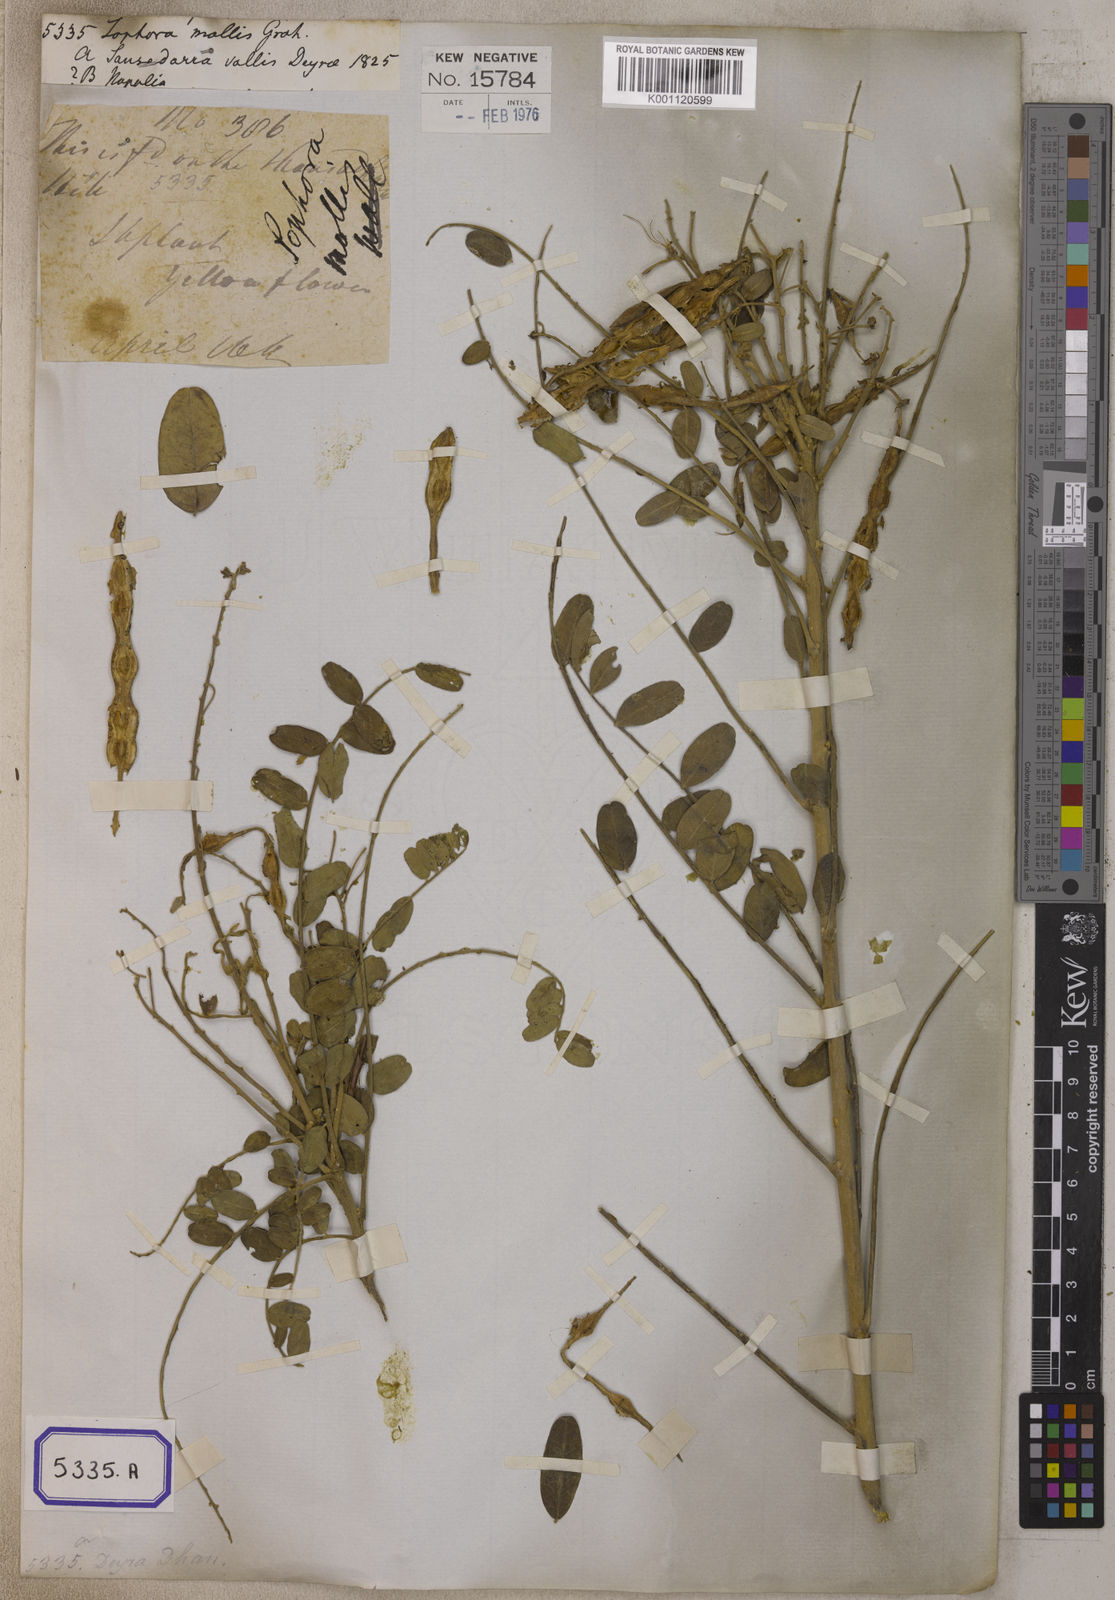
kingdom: Plantae
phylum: Tracheophyta
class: Magnoliopsida
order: Fabales
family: Fabaceae
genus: Sophora
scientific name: Sophora
